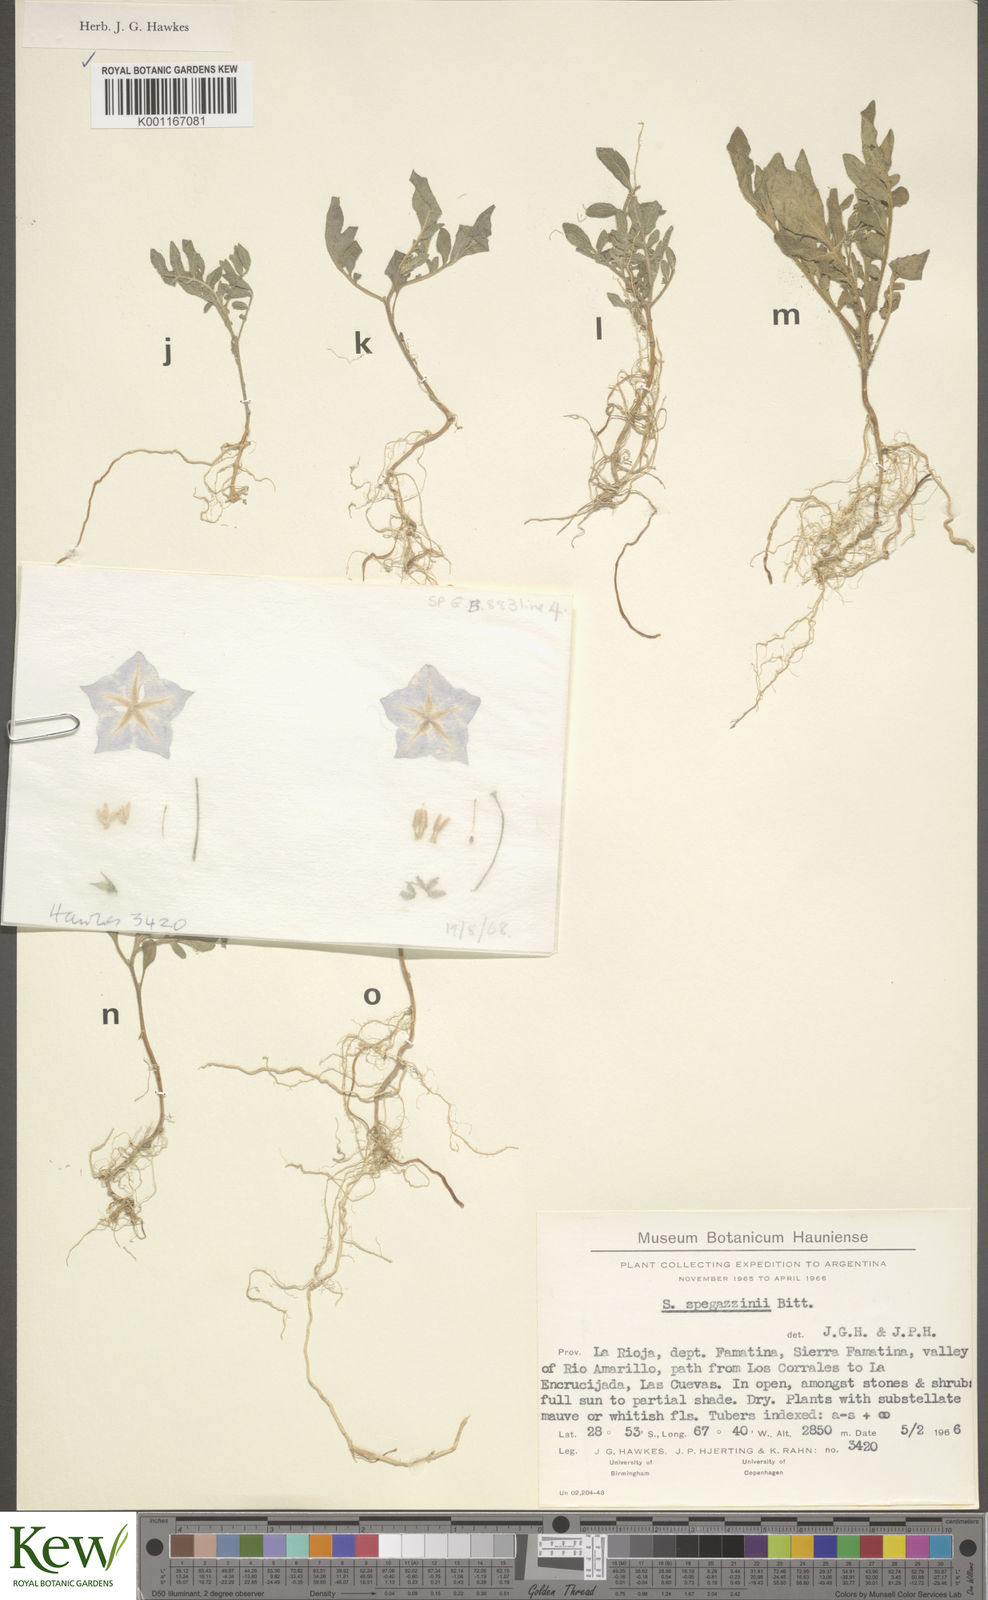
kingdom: Plantae
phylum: Tracheophyta
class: Magnoliopsida
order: Solanales
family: Solanaceae
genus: Solanum
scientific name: Solanum brevicaule
